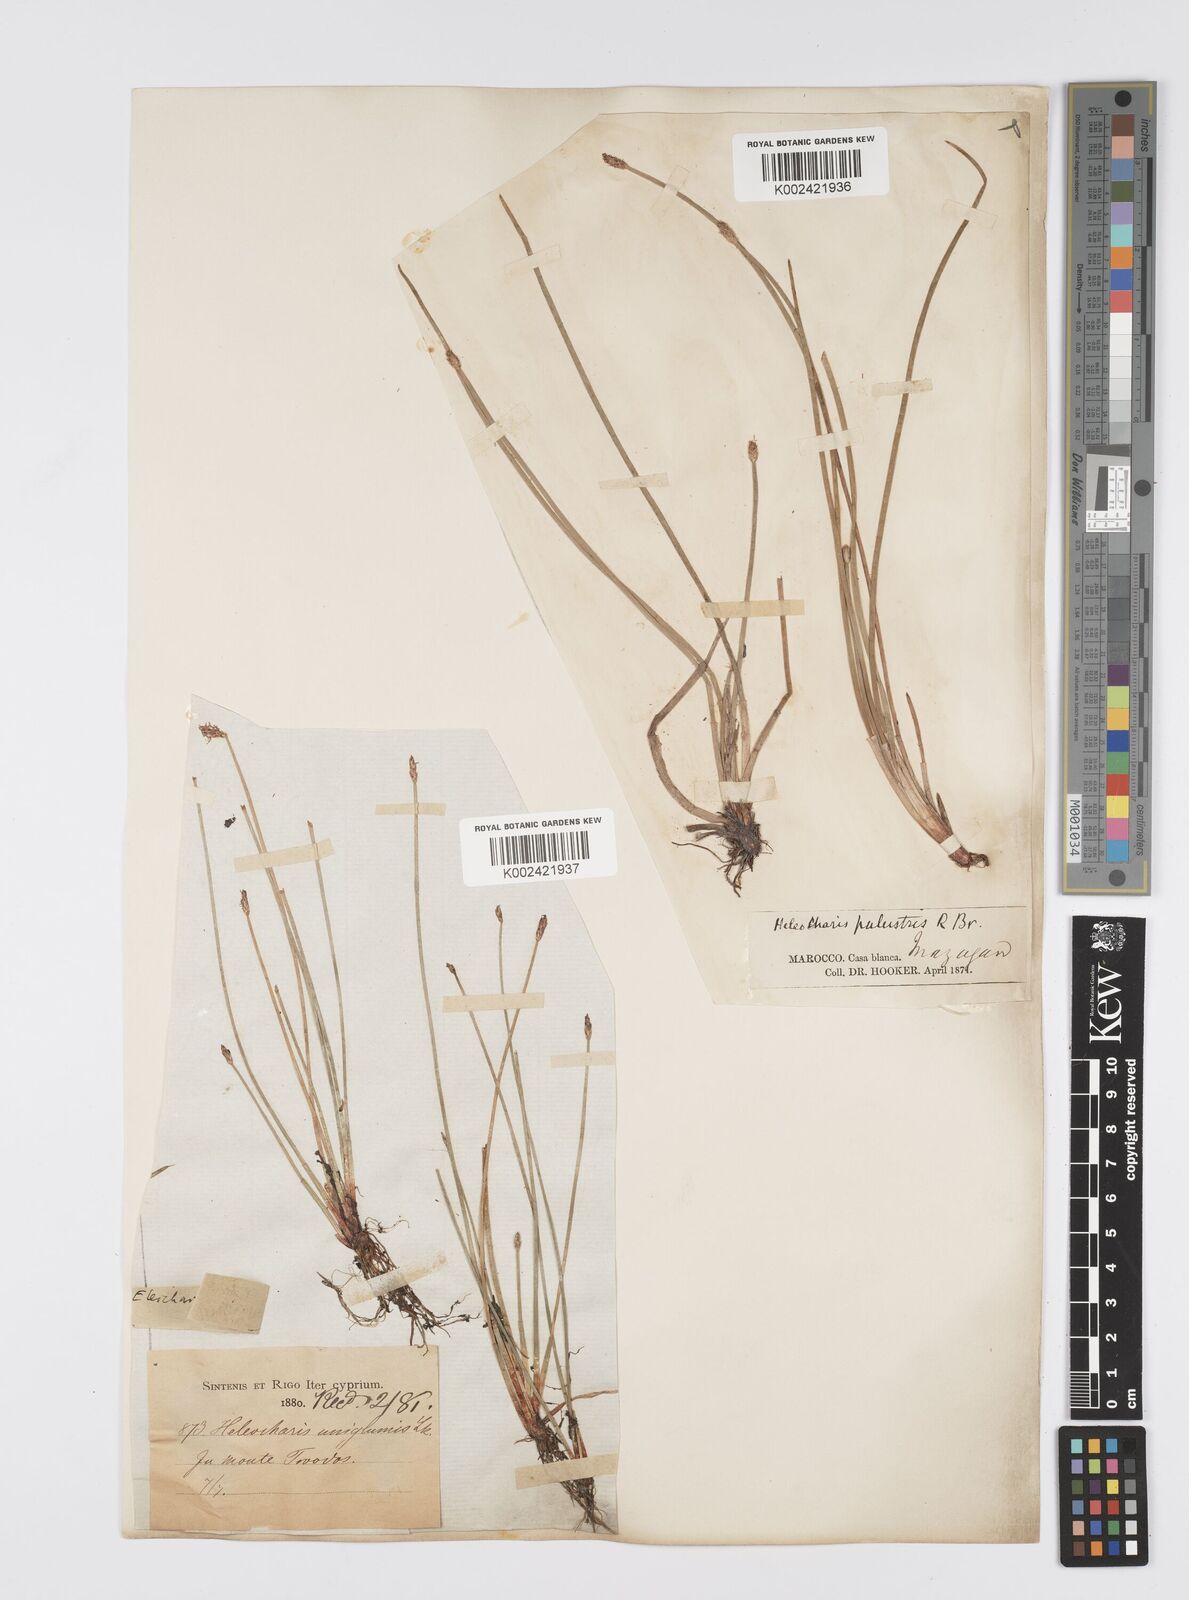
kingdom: Plantae
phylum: Tracheophyta
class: Liliopsida
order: Poales
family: Cyperaceae
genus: Eleocharis
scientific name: Eleocharis palustris
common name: Common spike-rush
